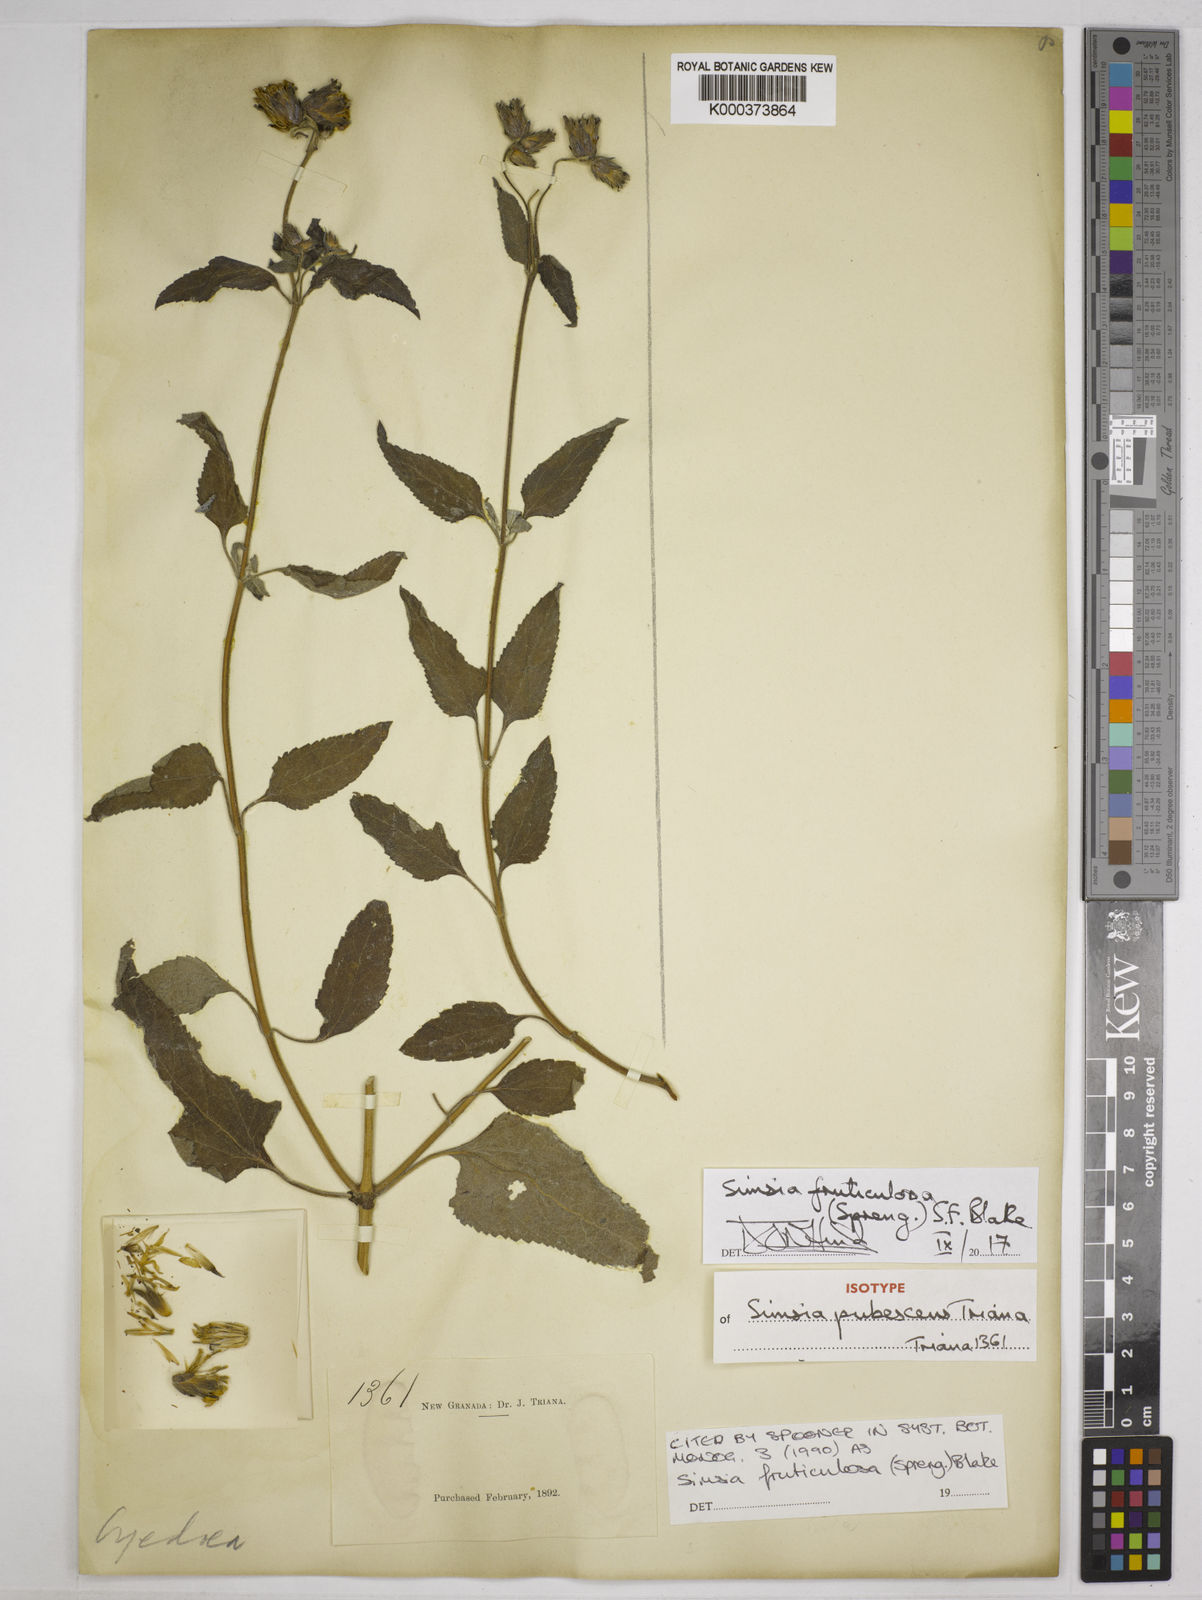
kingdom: Plantae
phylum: Tracheophyta
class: Magnoliopsida
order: Asterales
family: Asteraceae
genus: Simsia
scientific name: Simsia fruticulosa
